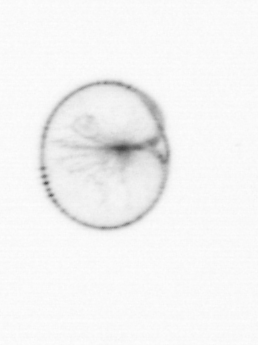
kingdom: Chromista
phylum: Myzozoa
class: Dinophyceae
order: Noctilucales
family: Noctilucaceae
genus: Noctiluca
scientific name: Noctiluca scintillans
